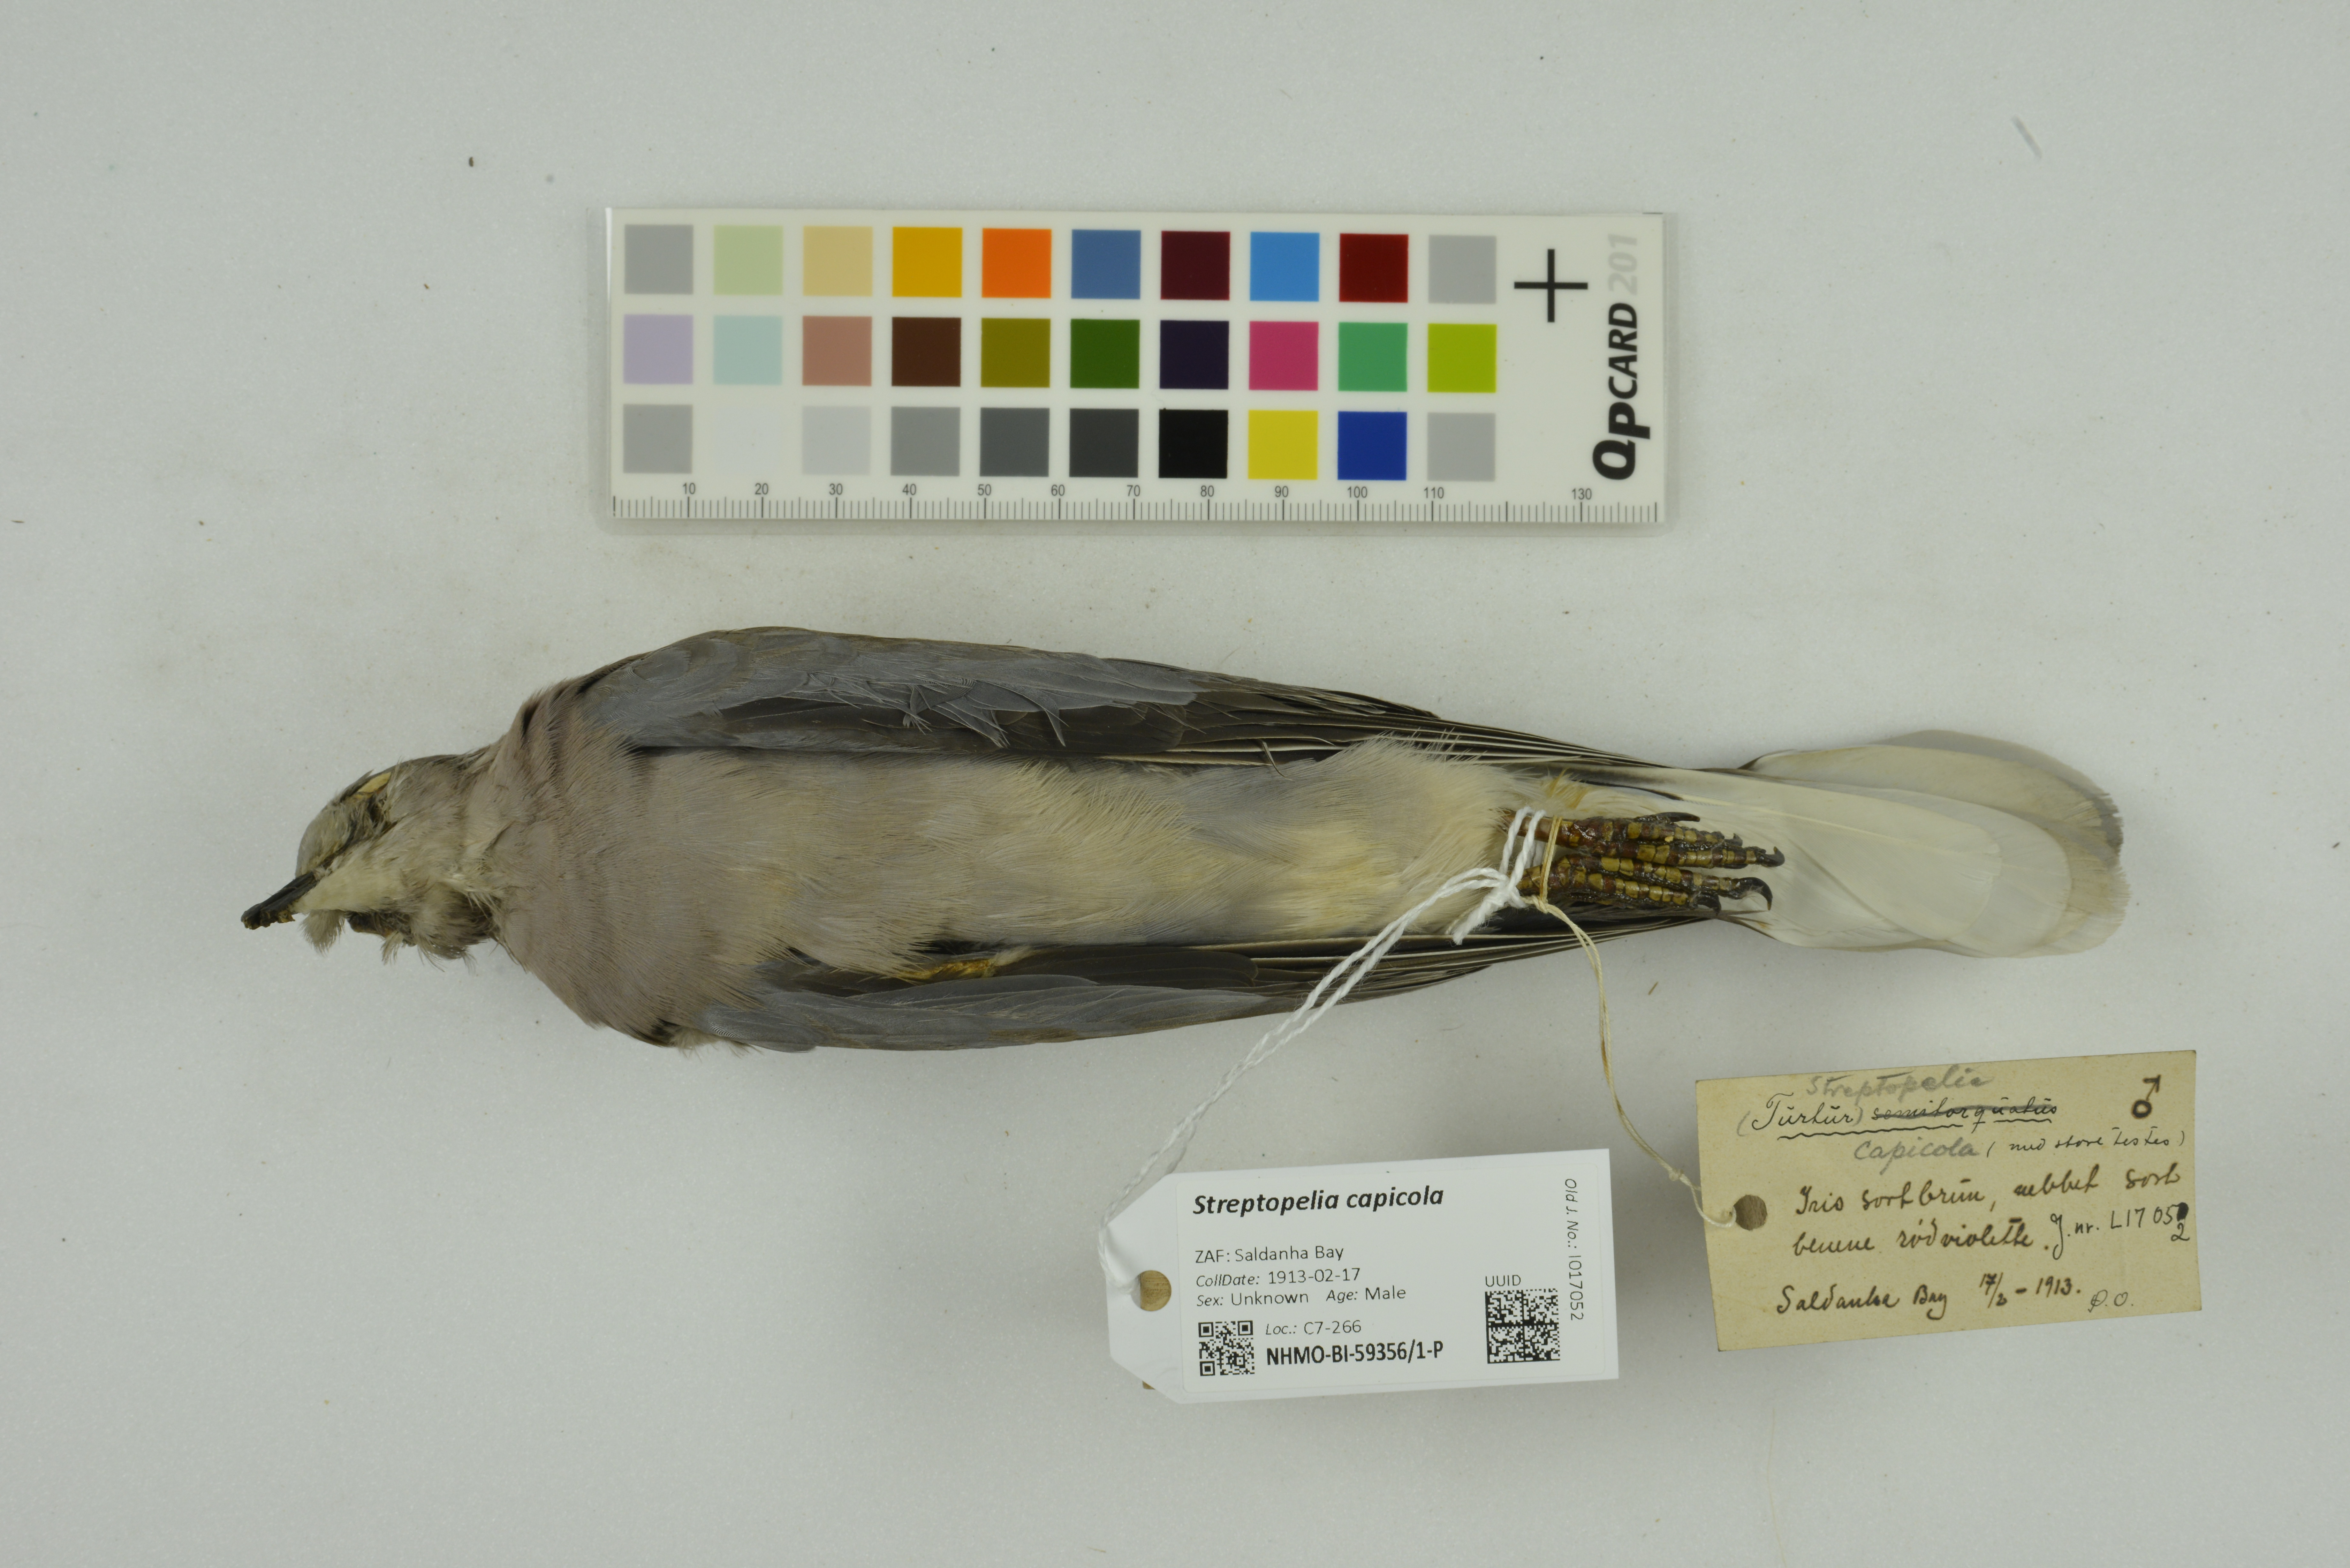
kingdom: Animalia
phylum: Chordata
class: Aves
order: Columbiformes
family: Columbidae
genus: Streptopelia
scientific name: Streptopelia capicola
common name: Ring-necked dove
